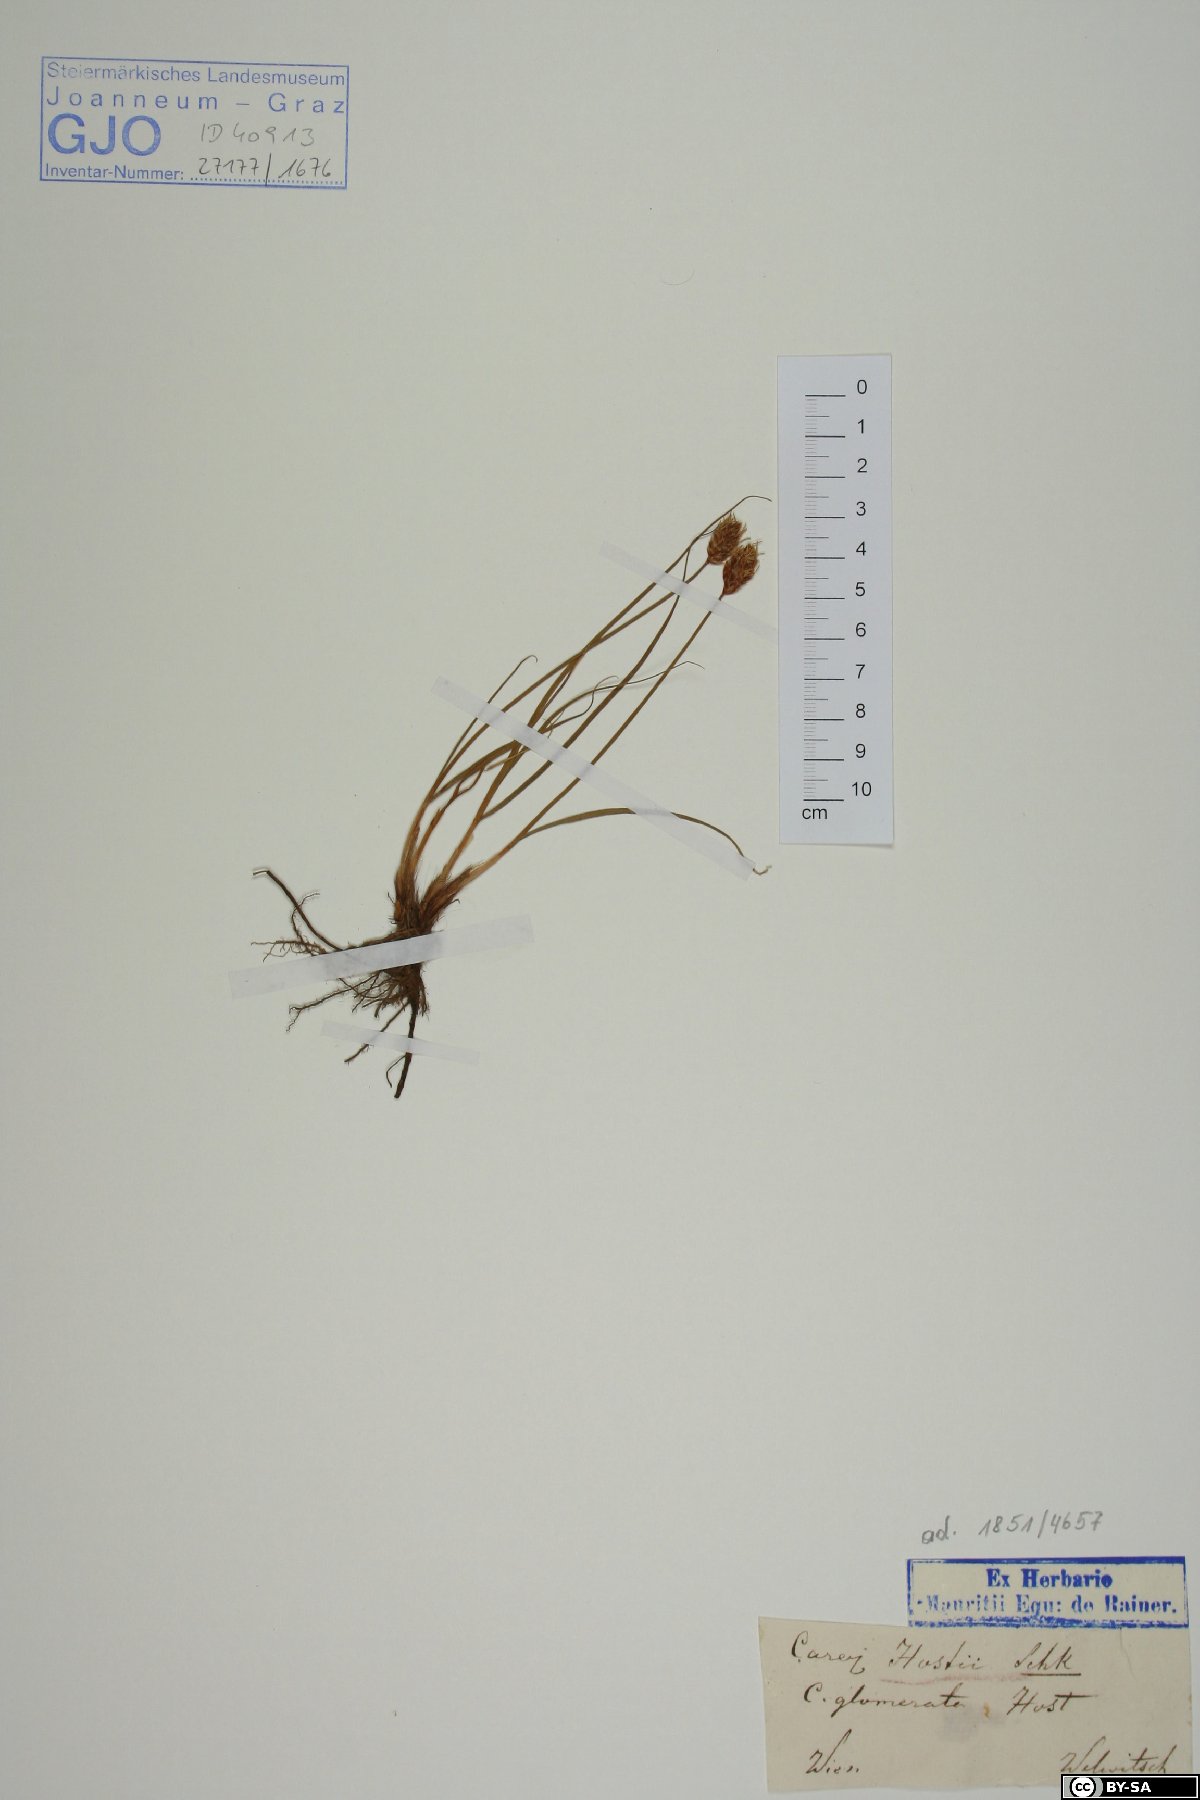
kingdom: Plantae
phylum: Tracheophyta
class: Liliopsida
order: Poales
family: Cyperaceae
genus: Carex
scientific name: Carex stenophylla
